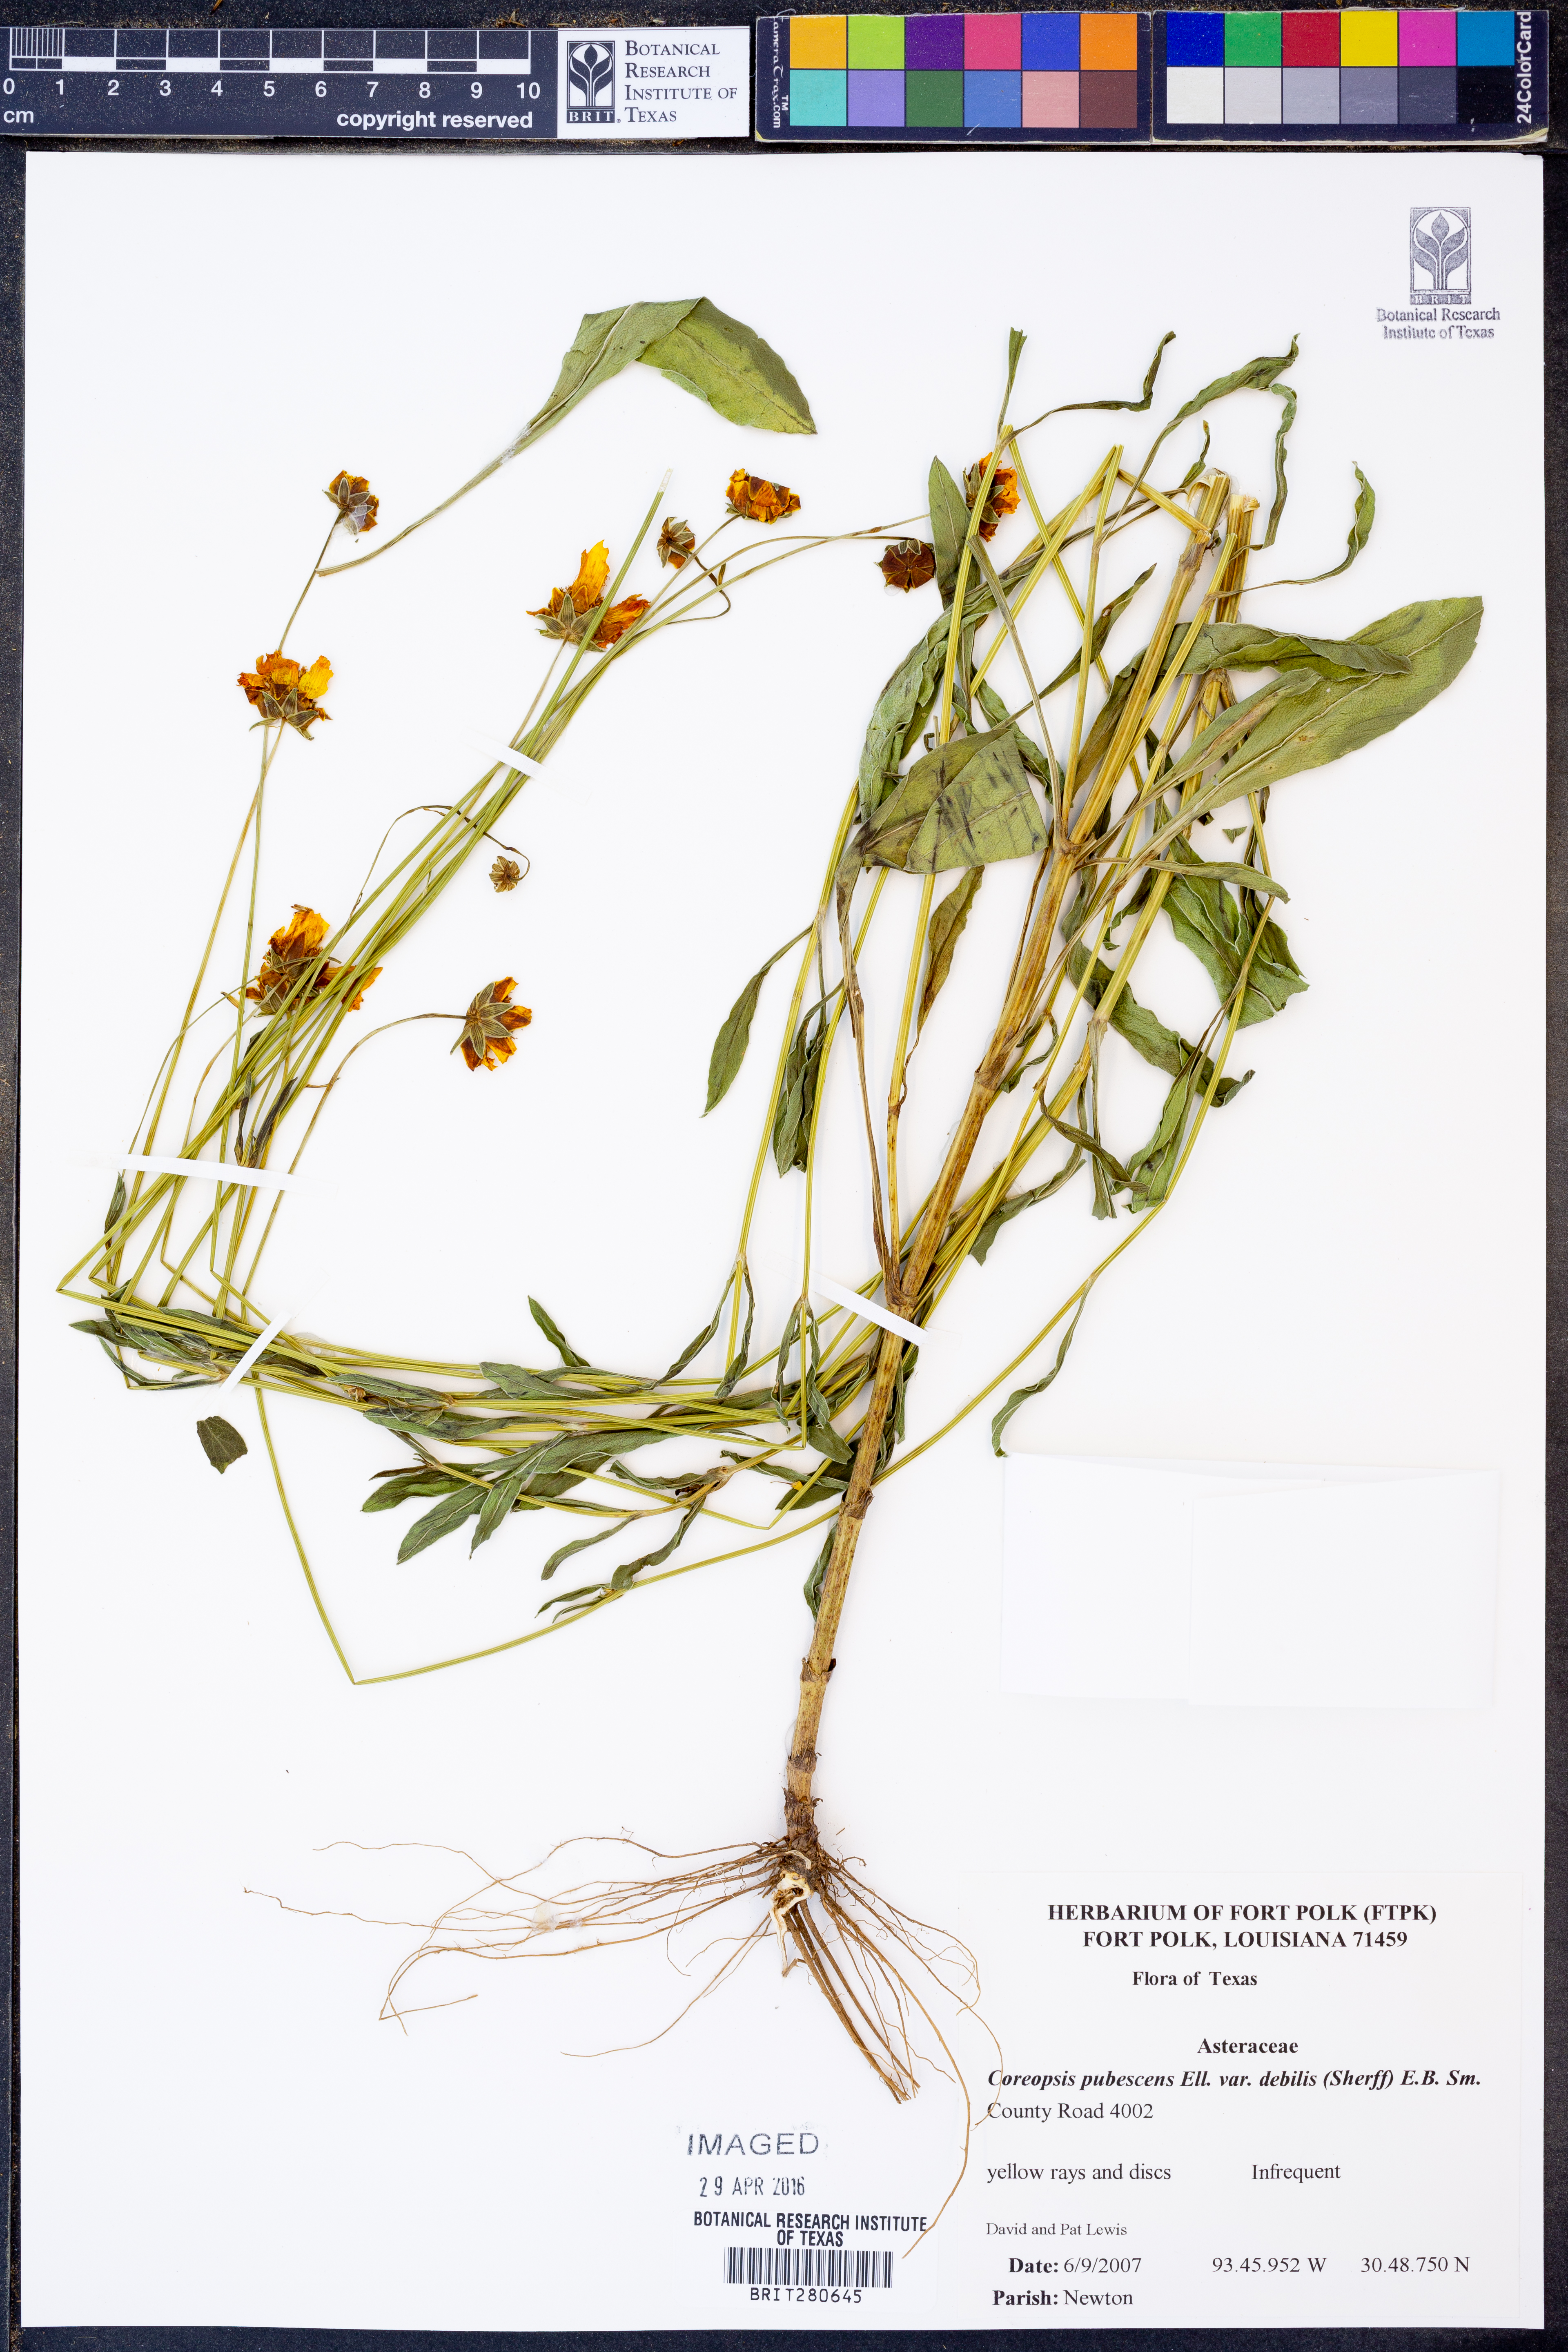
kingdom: Plantae
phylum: Tracheophyta
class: Magnoliopsida
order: Asterales
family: Asteraceae
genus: Coreopsis
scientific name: Coreopsis pubescens
